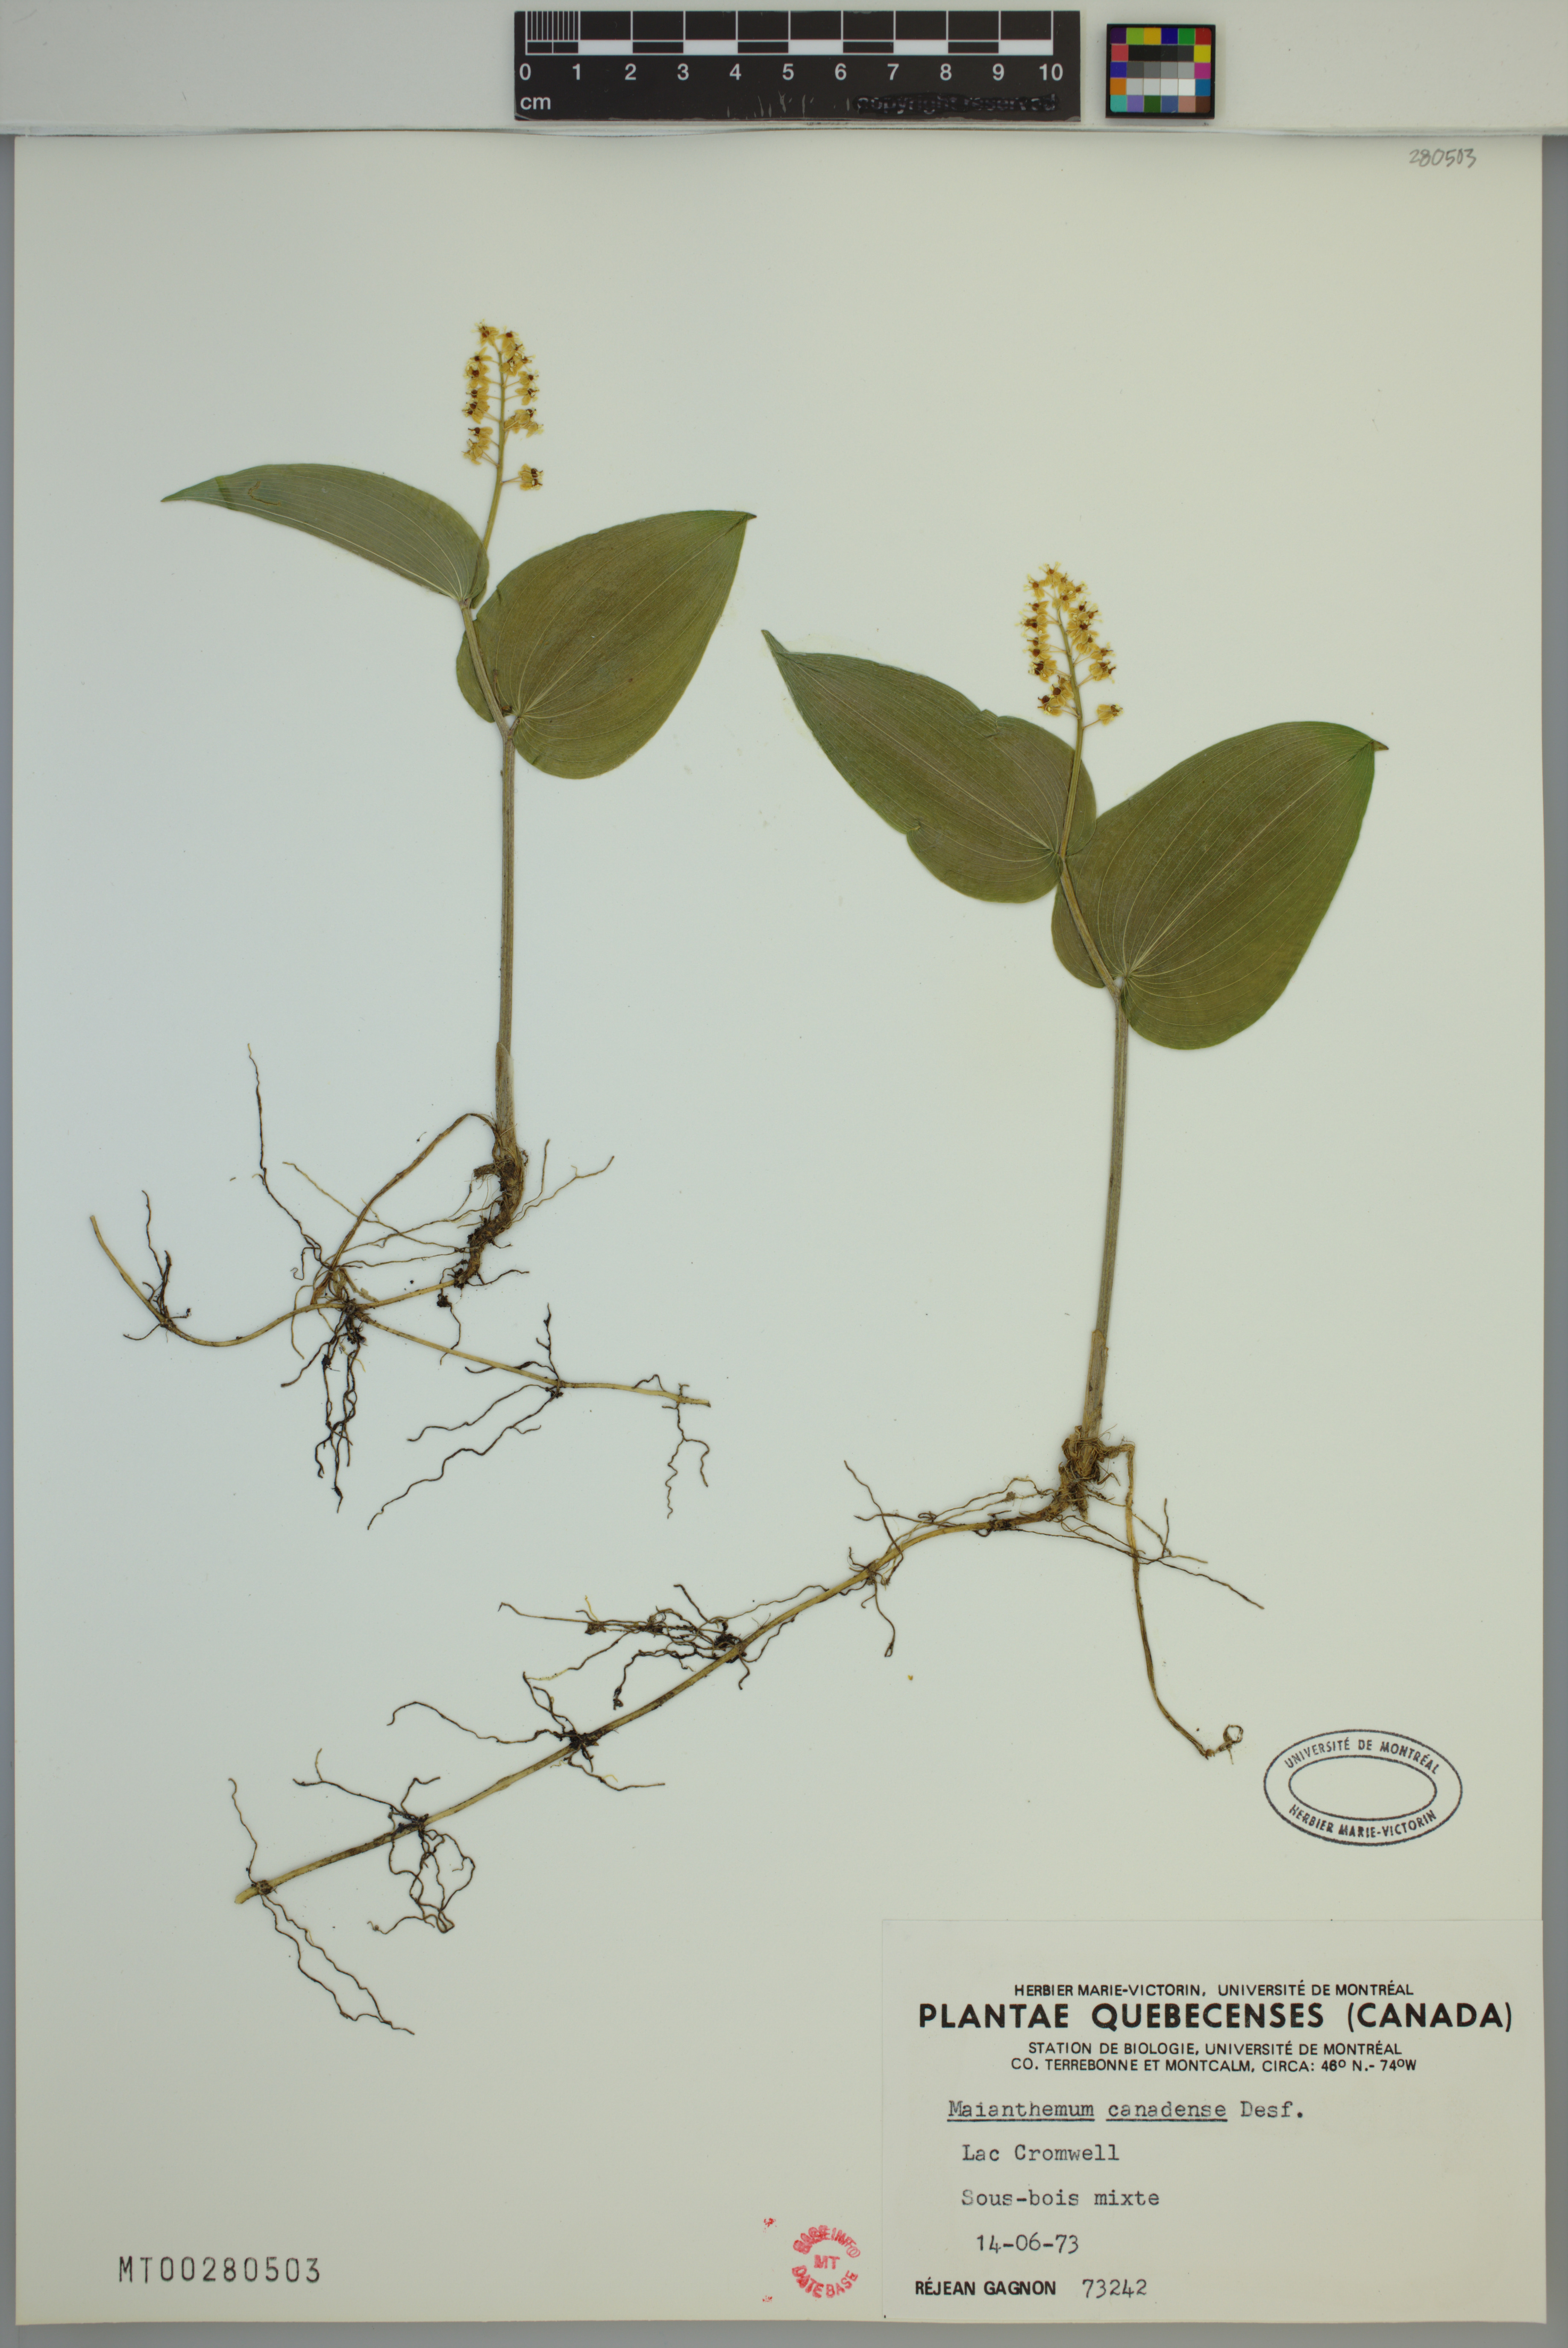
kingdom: Plantae
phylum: Tracheophyta
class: Liliopsida
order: Asparagales
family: Asparagaceae
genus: Maianthemum
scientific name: Maianthemum canadense
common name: False lily-of-the-valley
